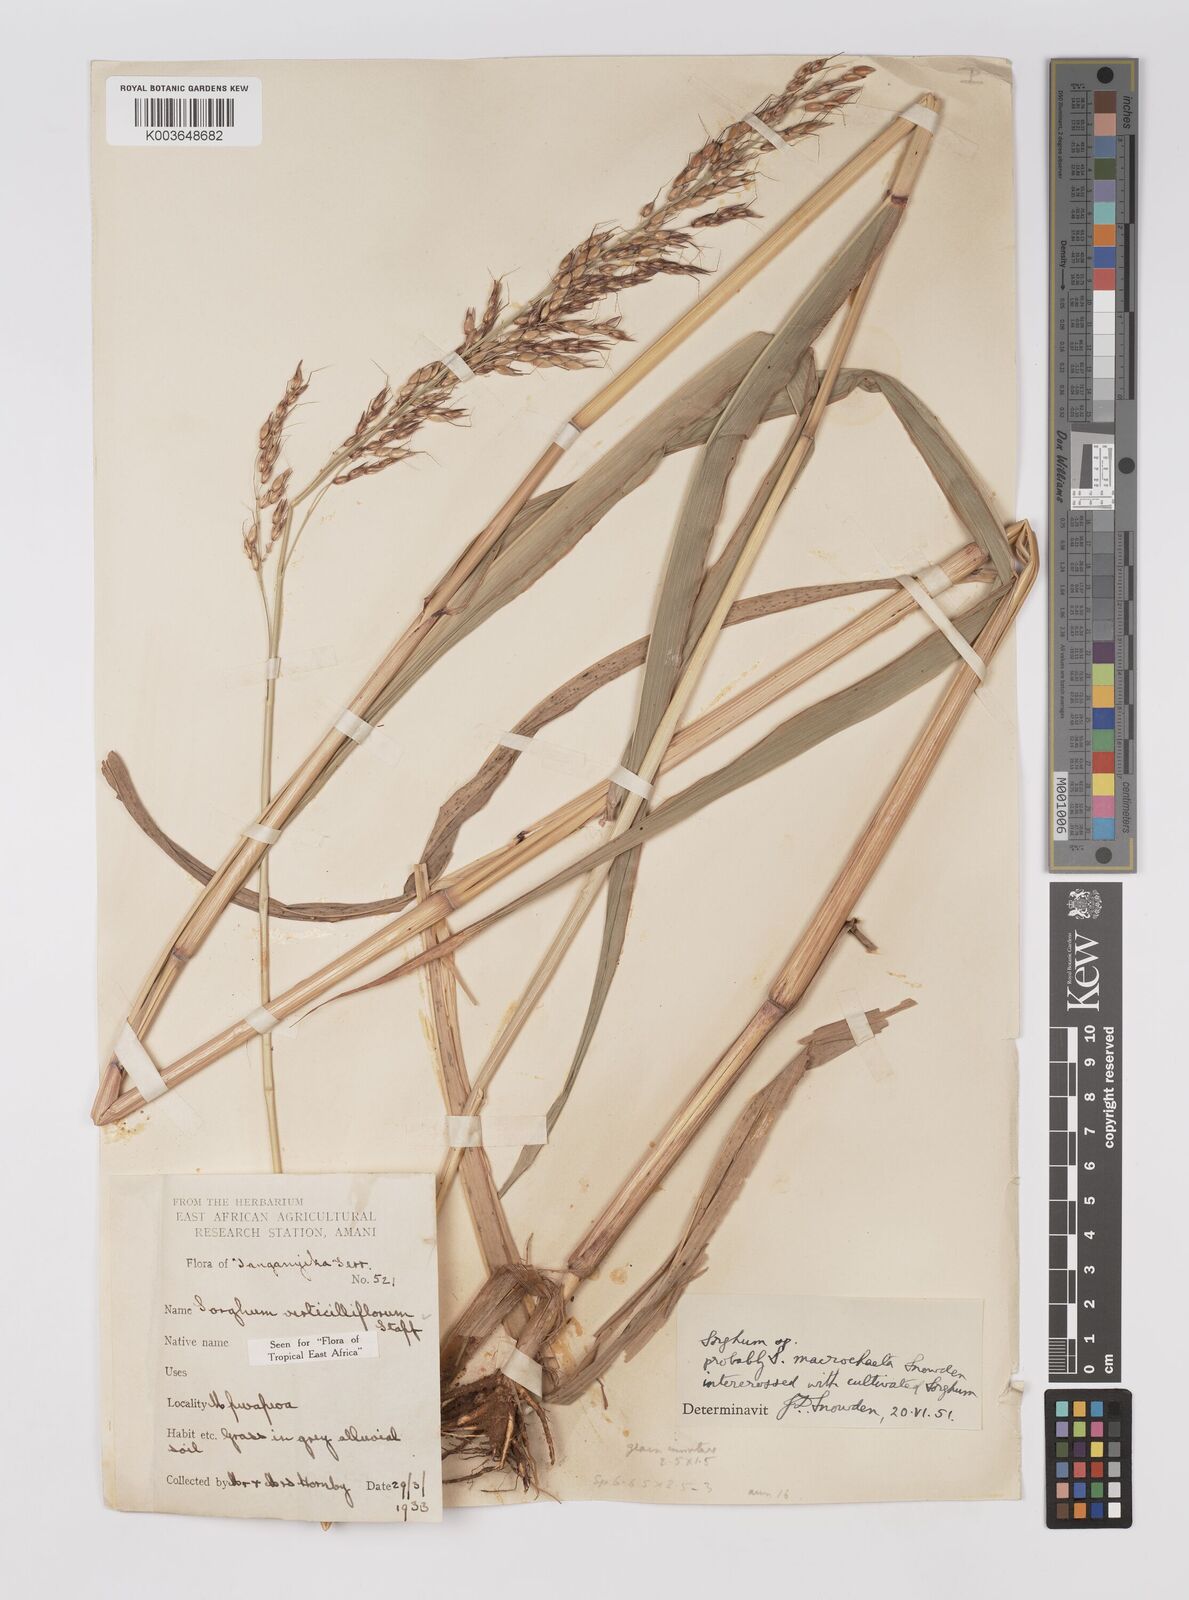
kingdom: Plantae
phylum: Tracheophyta
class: Liliopsida
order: Poales
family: Poaceae
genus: Sorghum
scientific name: Sorghum arundinaceum
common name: Sorghum
